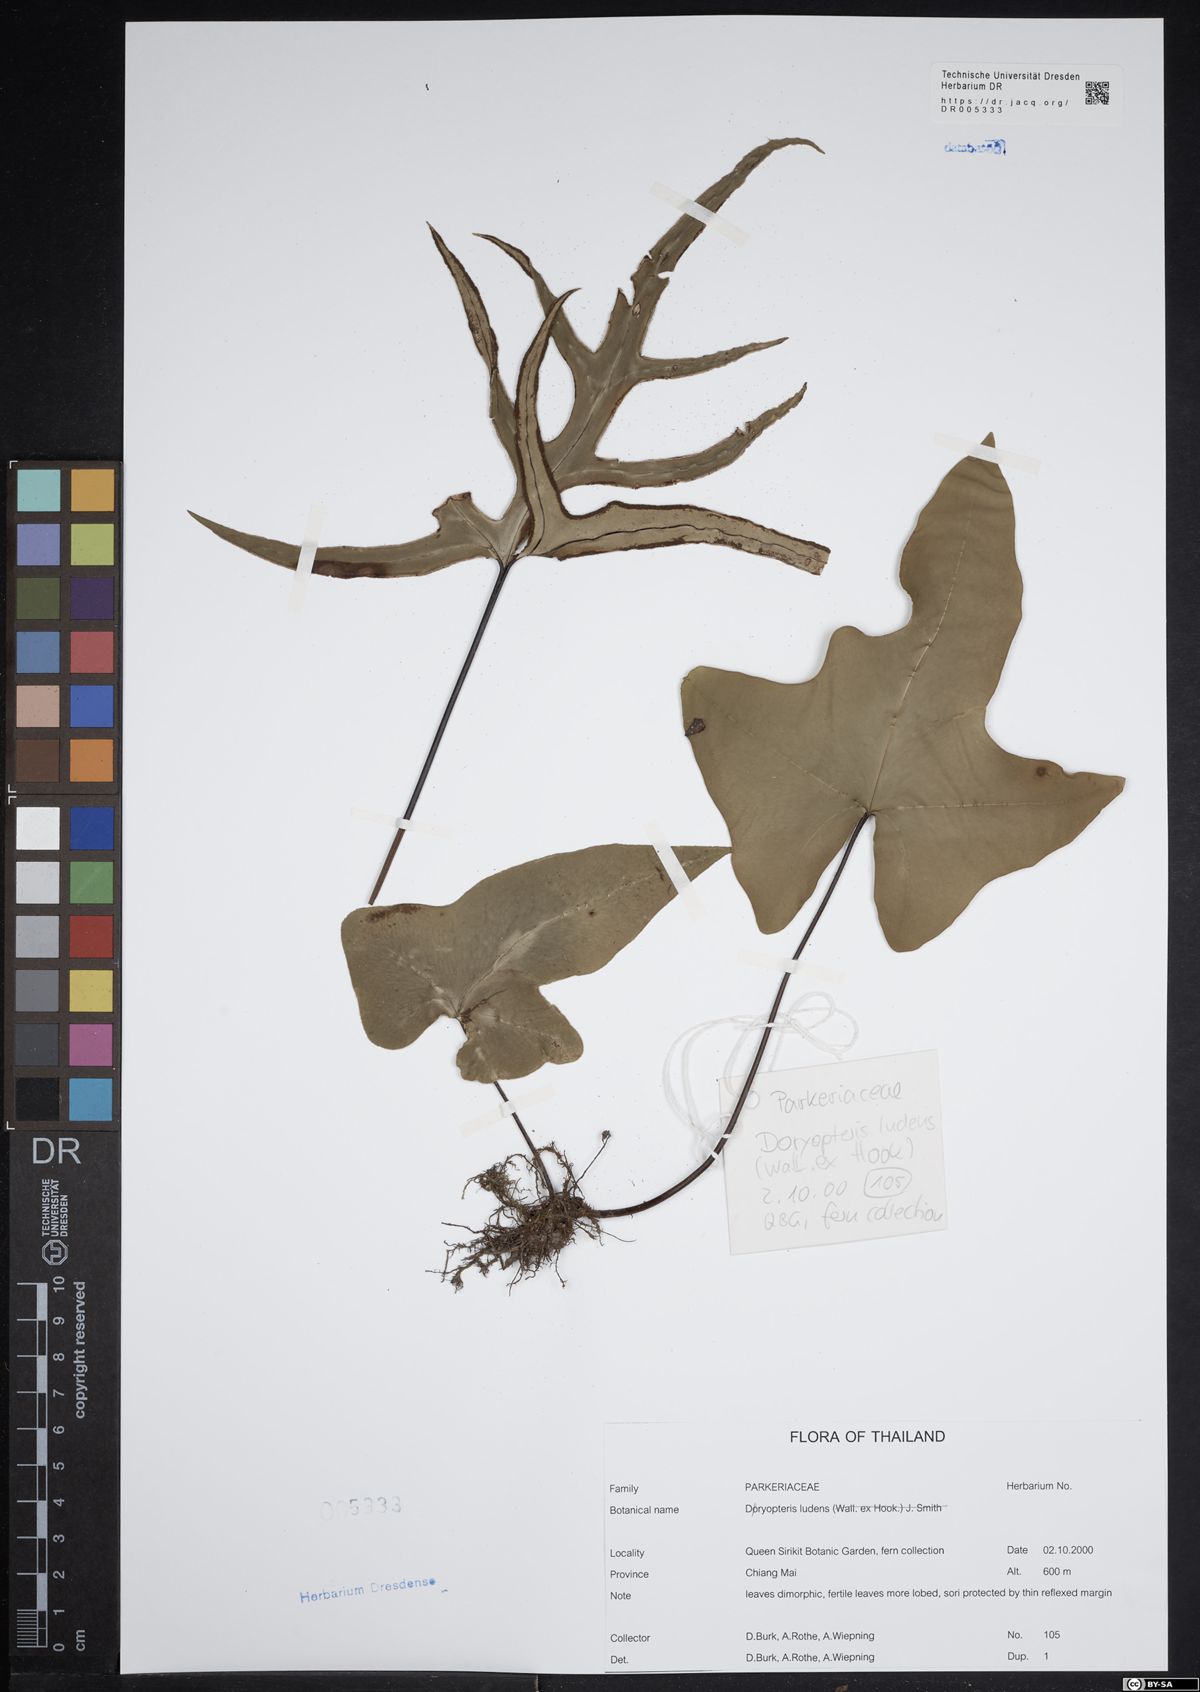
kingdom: Plantae
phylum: Tracheophyta
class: Polypodiopsida
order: Polypodiales
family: Dryopteridaceae
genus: Dryopteris
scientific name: Dryopteris arborescens
